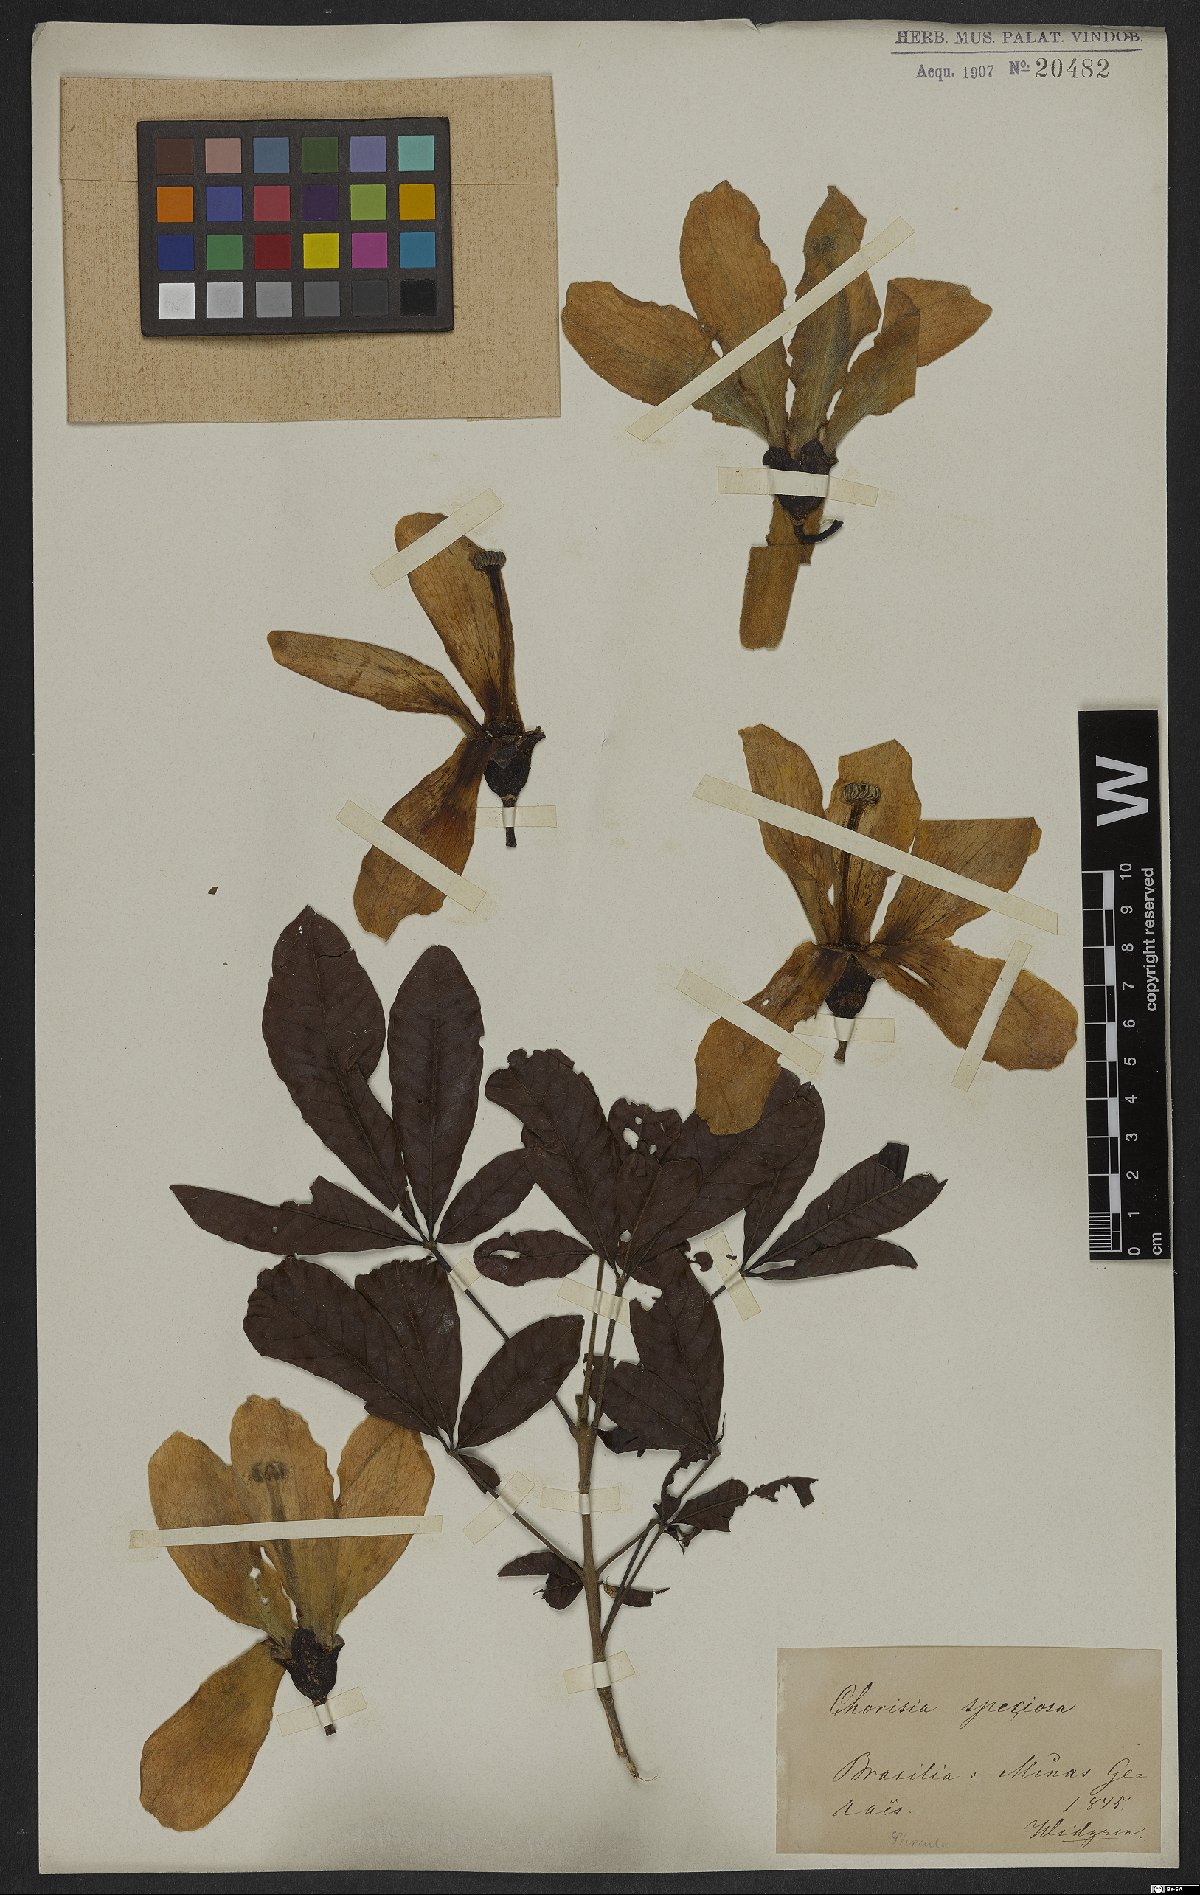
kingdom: Plantae
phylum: Tracheophyta
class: Magnoliopsida
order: Malvales
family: Malvaceae
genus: Ceiba
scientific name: Ceiba speciosa
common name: Silk-floss tree
